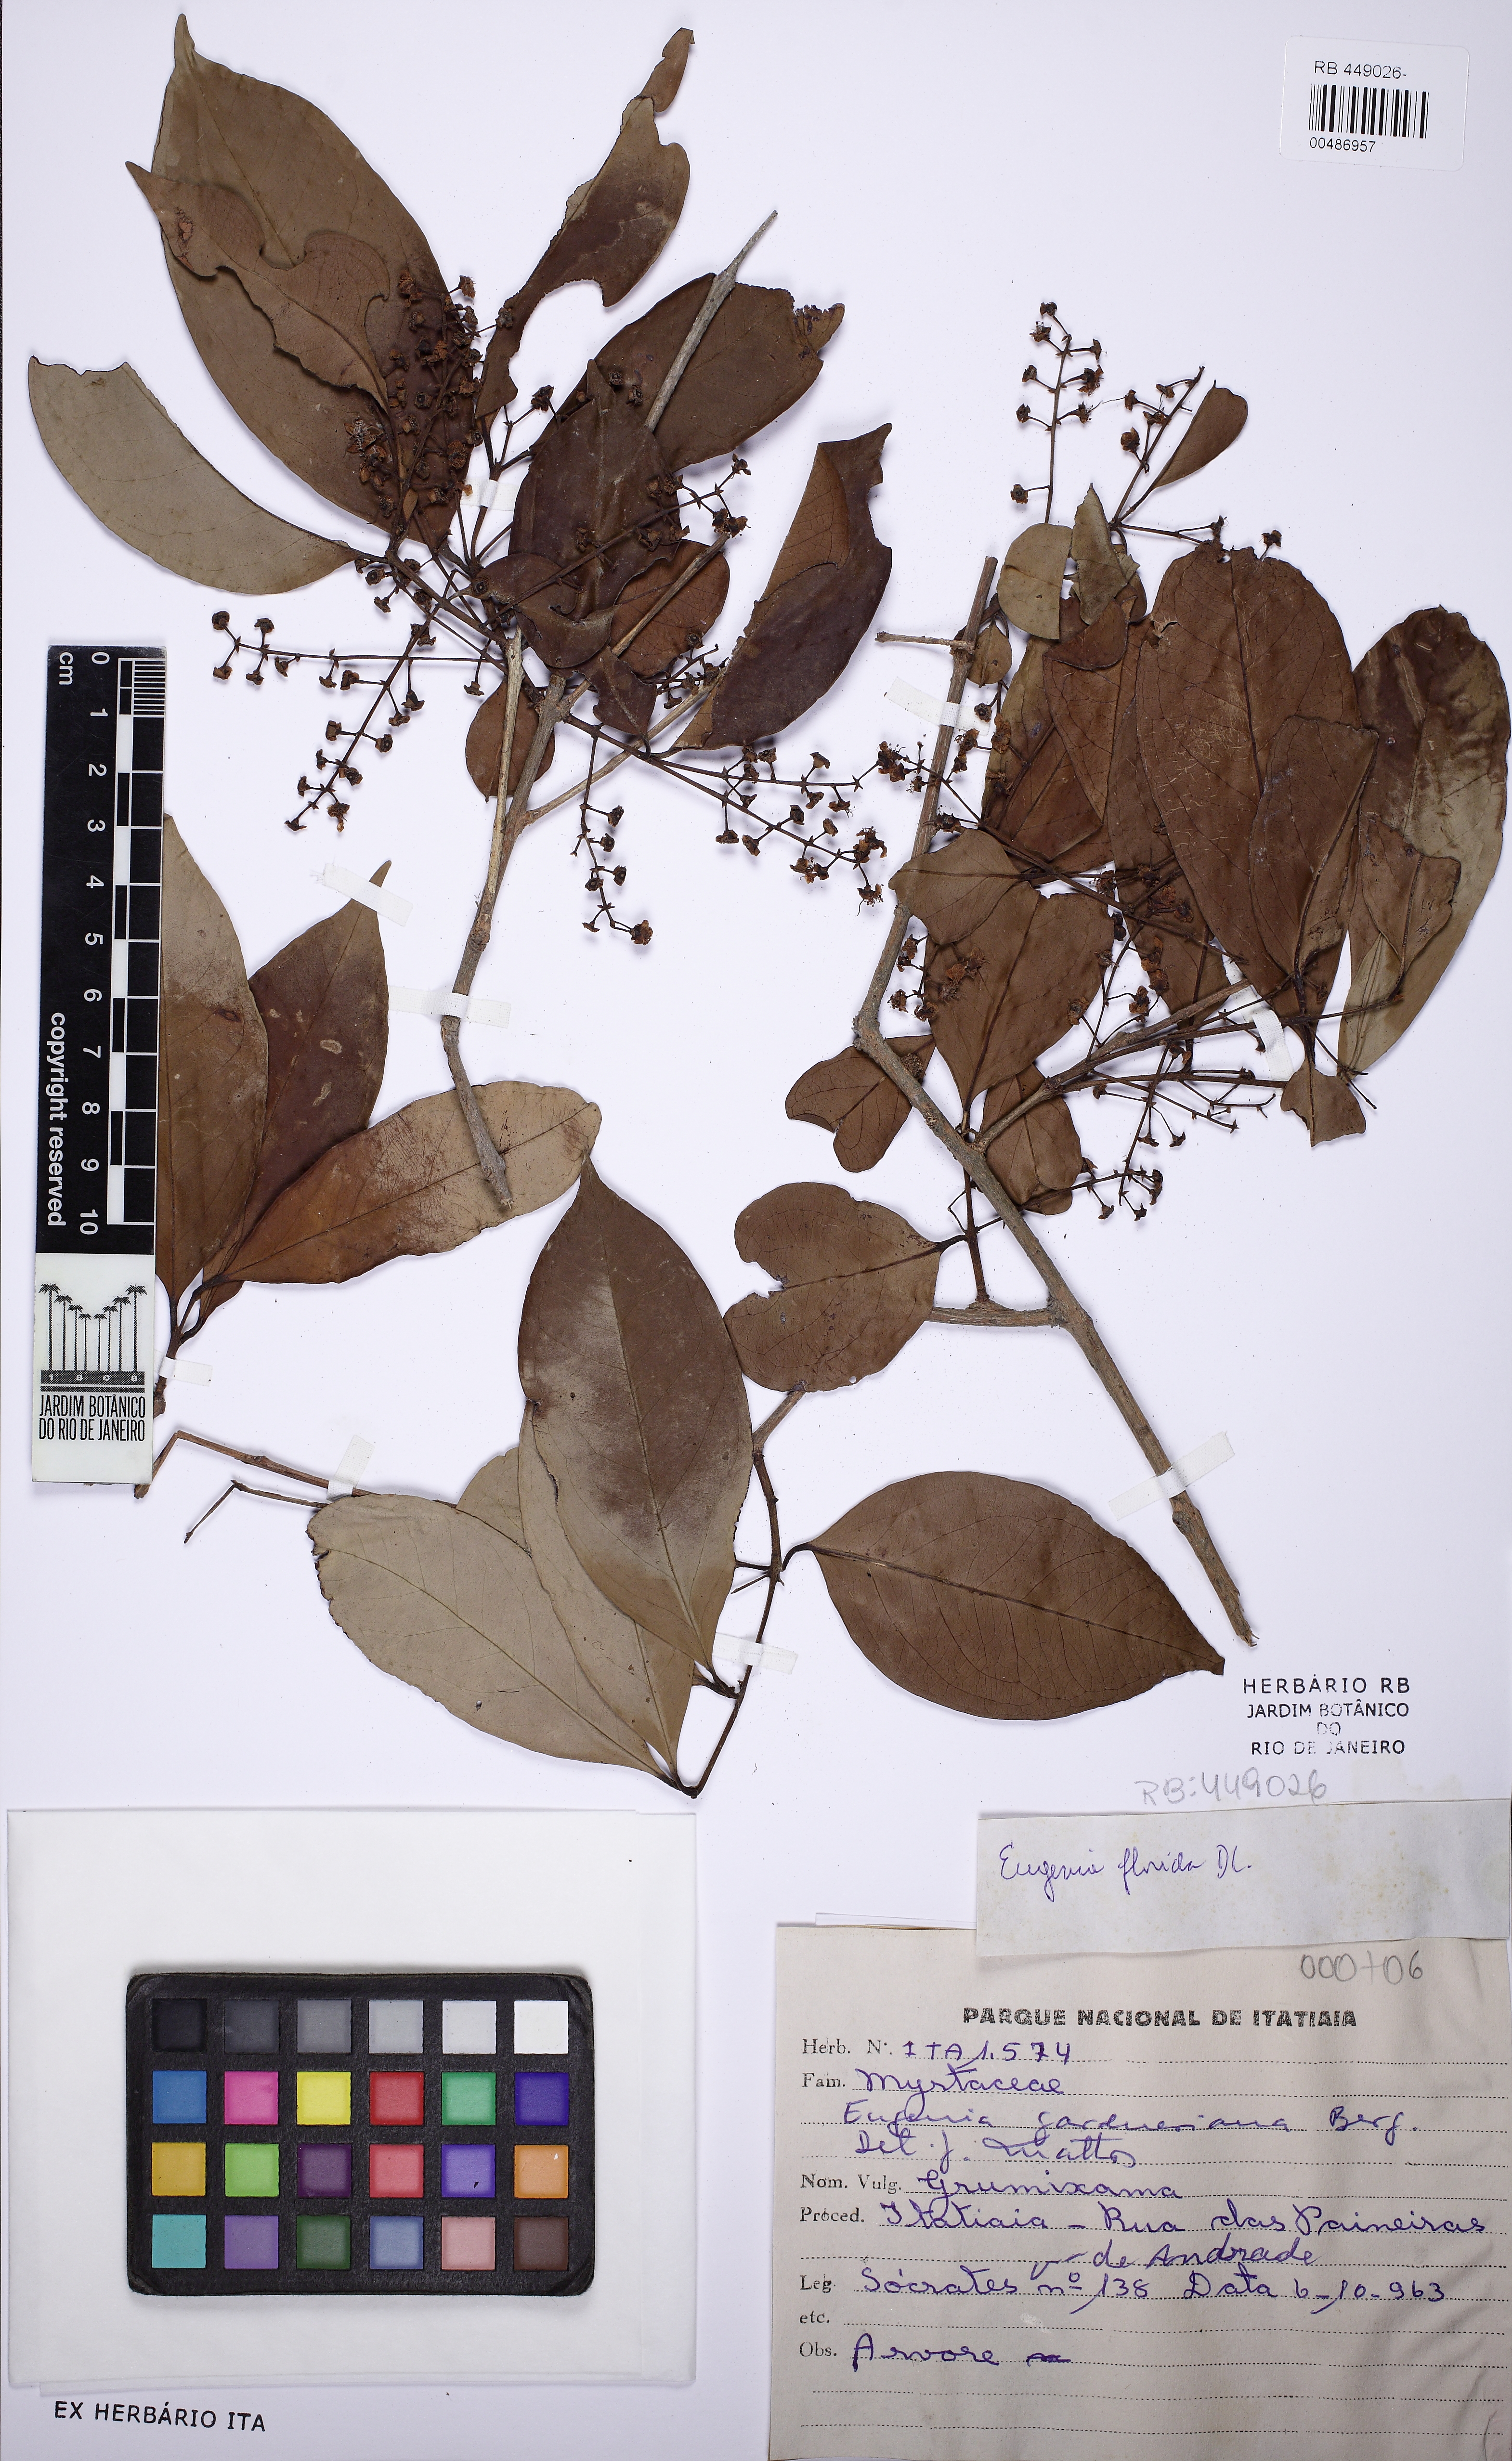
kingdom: Plantae
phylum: Tracheophyta
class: Magnoliopsida
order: Myrtales
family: Myrtaceae
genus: Eugenia
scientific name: Eugenia florida
